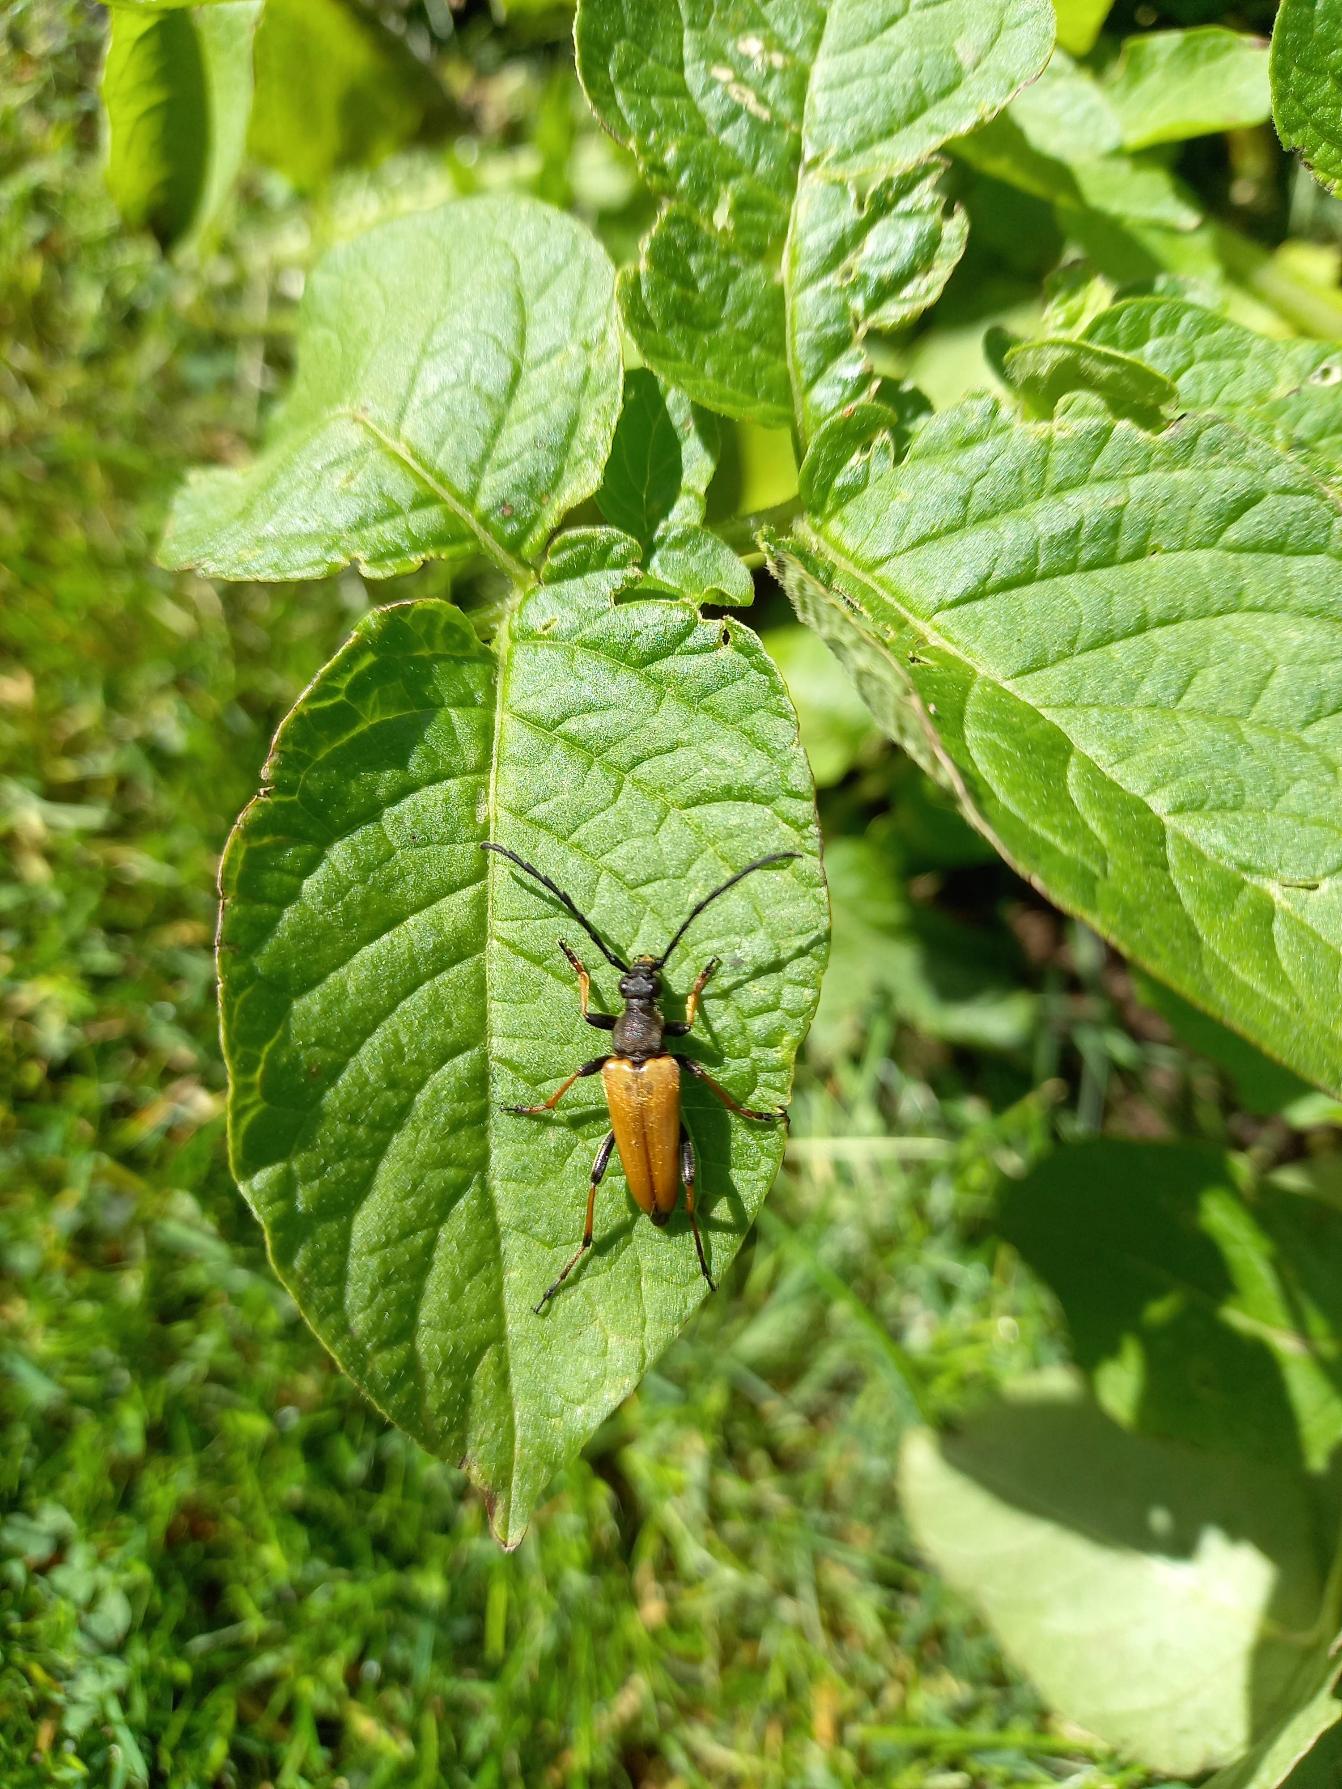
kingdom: Animalia
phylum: Arthropoda
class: Insecta
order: Coleoptera
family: Cerambycidae
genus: Stictoleptura
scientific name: Stictoleptura rubra
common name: Rød blomsterbuk
